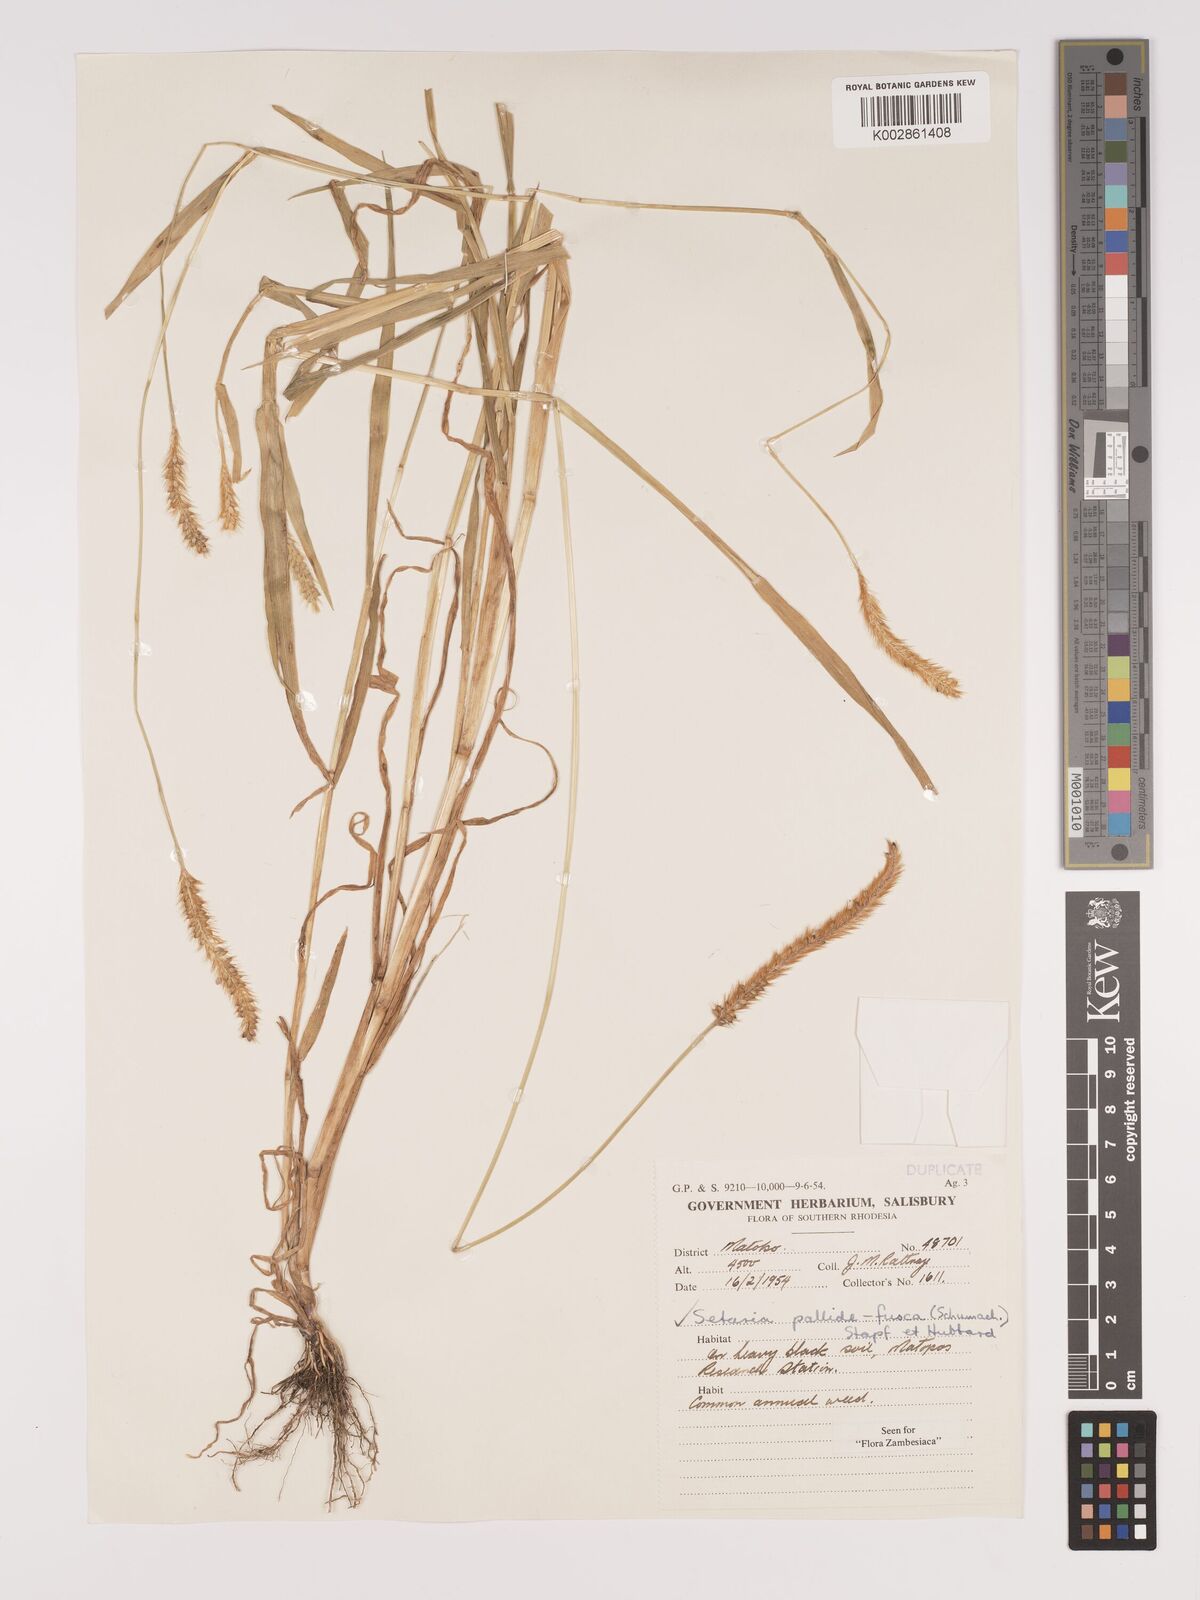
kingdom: Plantae
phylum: Tracheophyta
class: Liliopsida
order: Poales
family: Poaceae
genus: Setaria
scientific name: Setaria pumila
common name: Yellow bristle-grass
